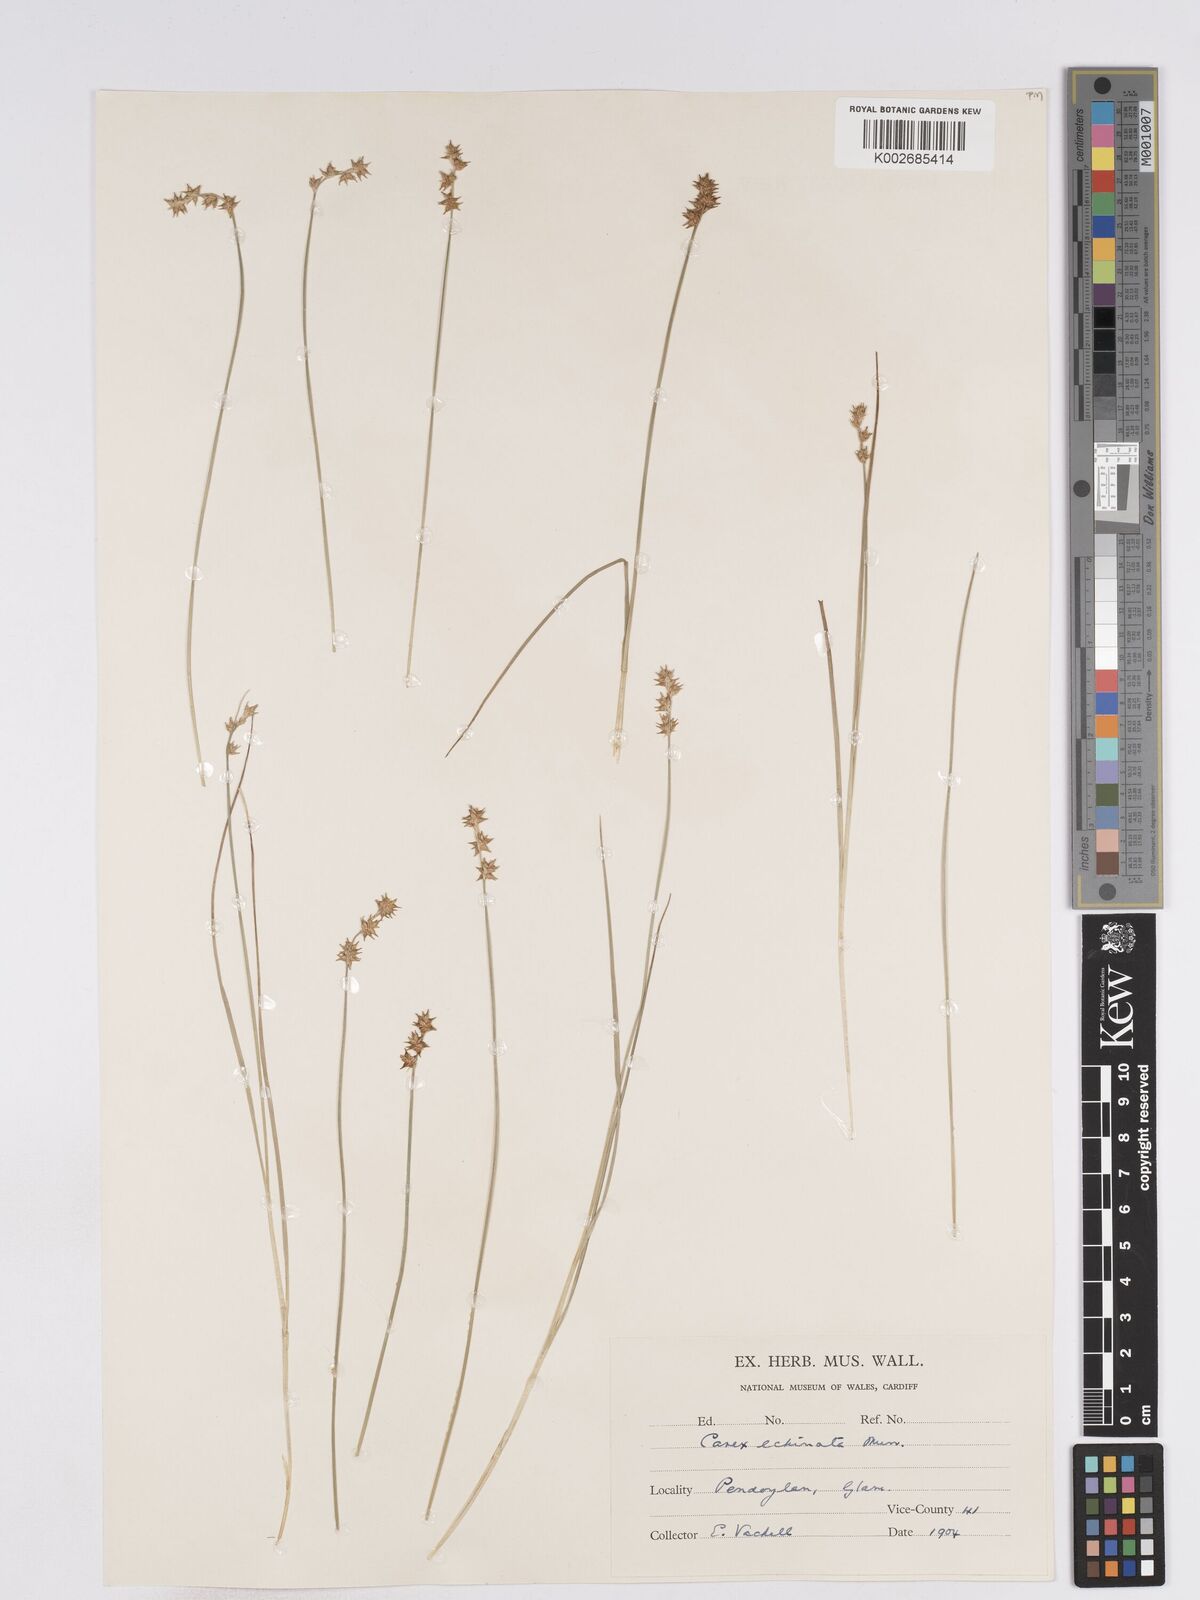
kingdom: Plantae
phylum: Tracheophyta
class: Liliopsida
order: Poales
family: Cyperaceae
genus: Carex
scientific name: Carex echinata
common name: Star sedge
